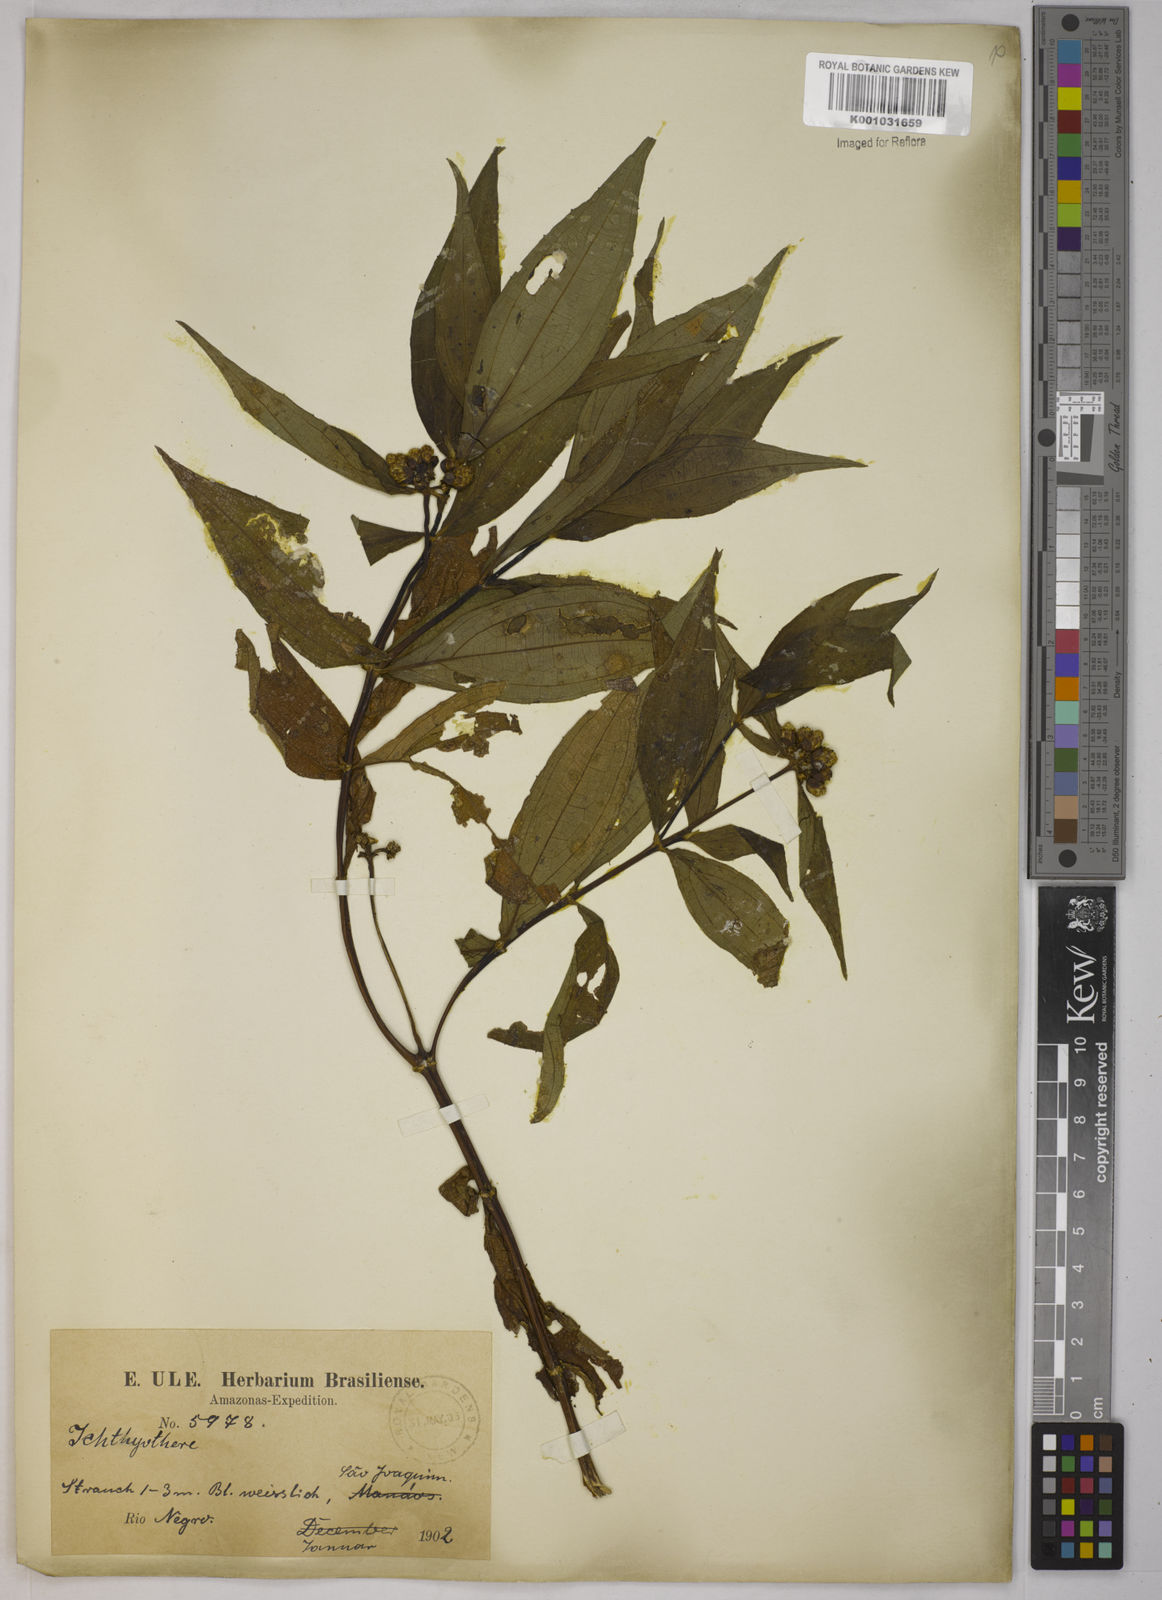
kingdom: Plantae
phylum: Tracheophyta
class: Magnoliopsida
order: Asterales
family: Asteraceae
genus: Ichthyothere
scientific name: Ichthyothere
